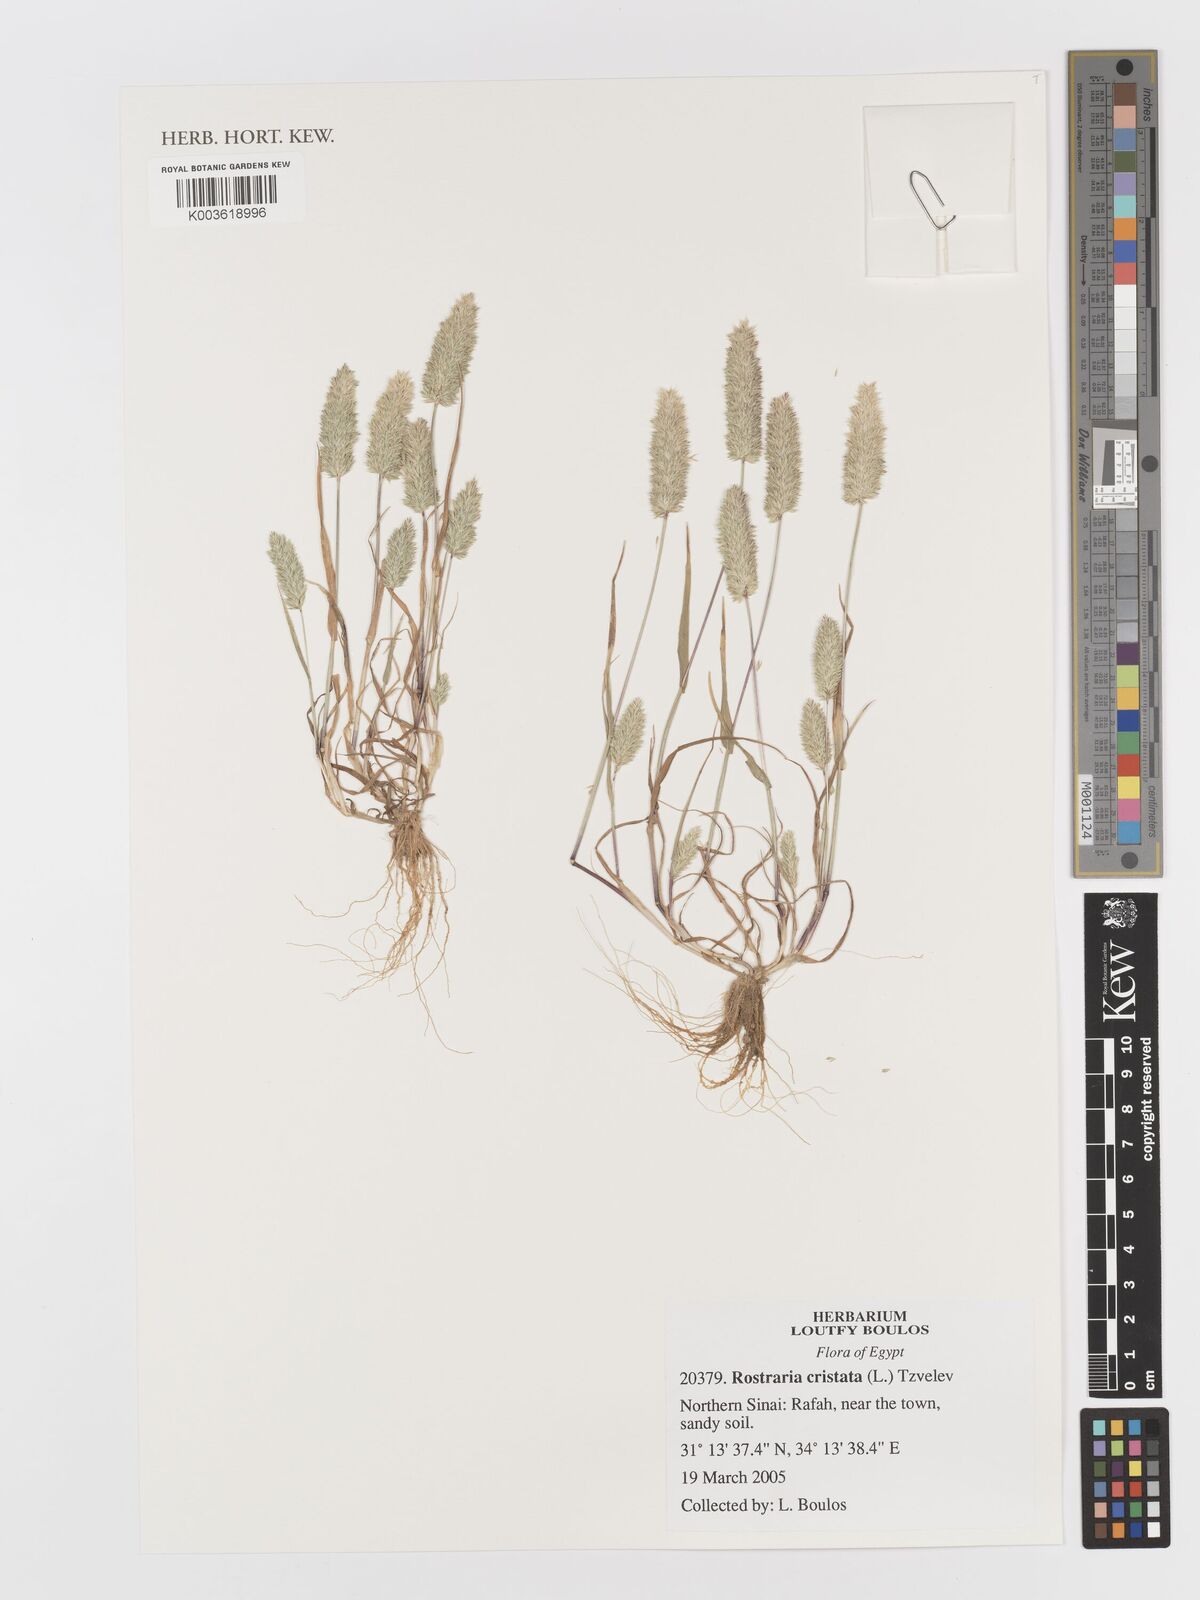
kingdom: Plantae
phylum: Tracheophyta
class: Liliopsida
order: Poales
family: Poaceae
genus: Rostraria
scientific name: Rostraria cristata
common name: Mediterranean hair-grass
